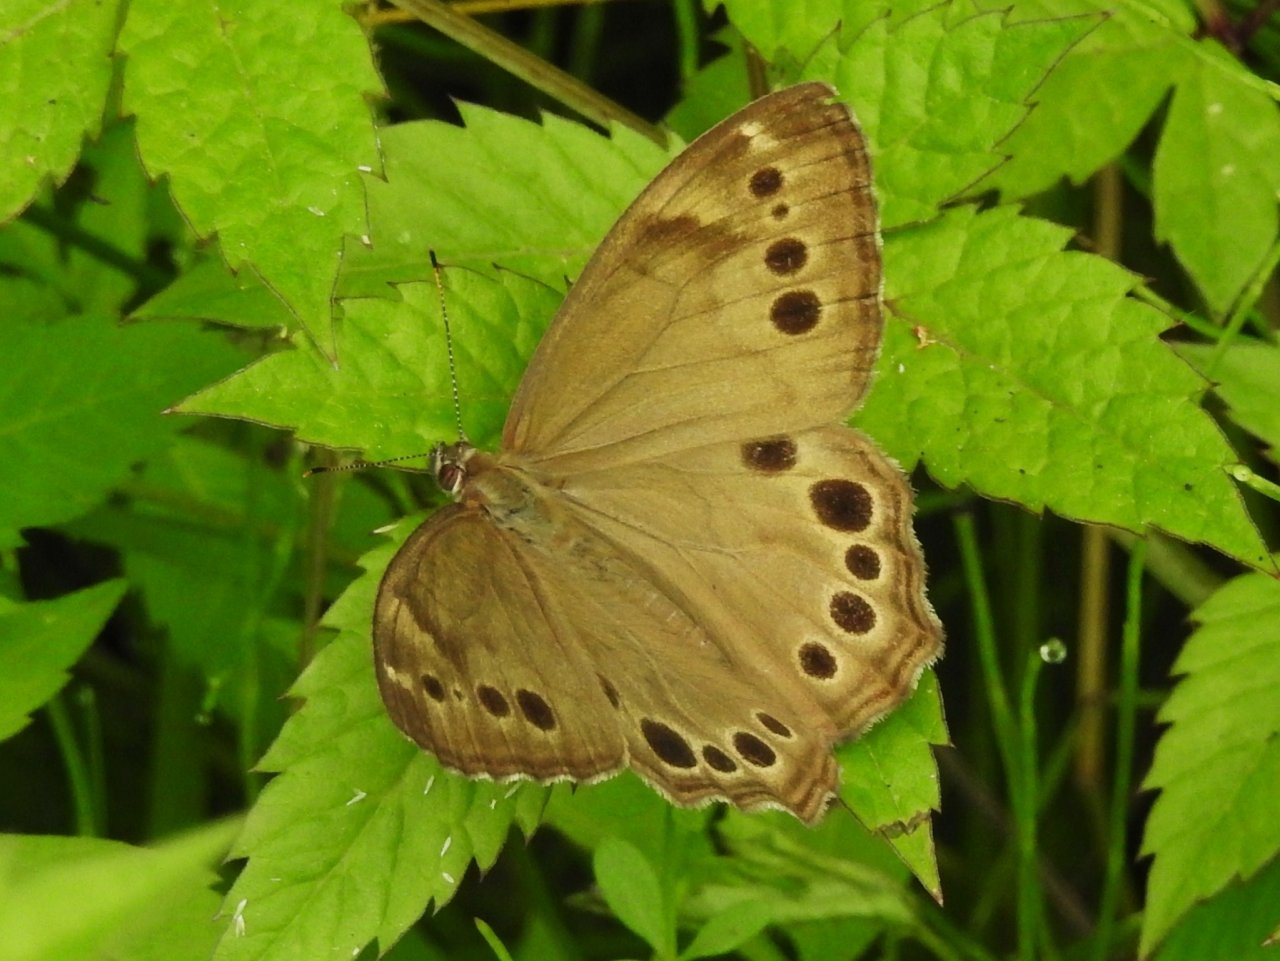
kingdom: Animalia
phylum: Arthropoda
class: Insecta
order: Lepidoptera
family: Nymphalidae
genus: Lethe
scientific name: Lethe anthedon
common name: Northern Pearly-Eye
